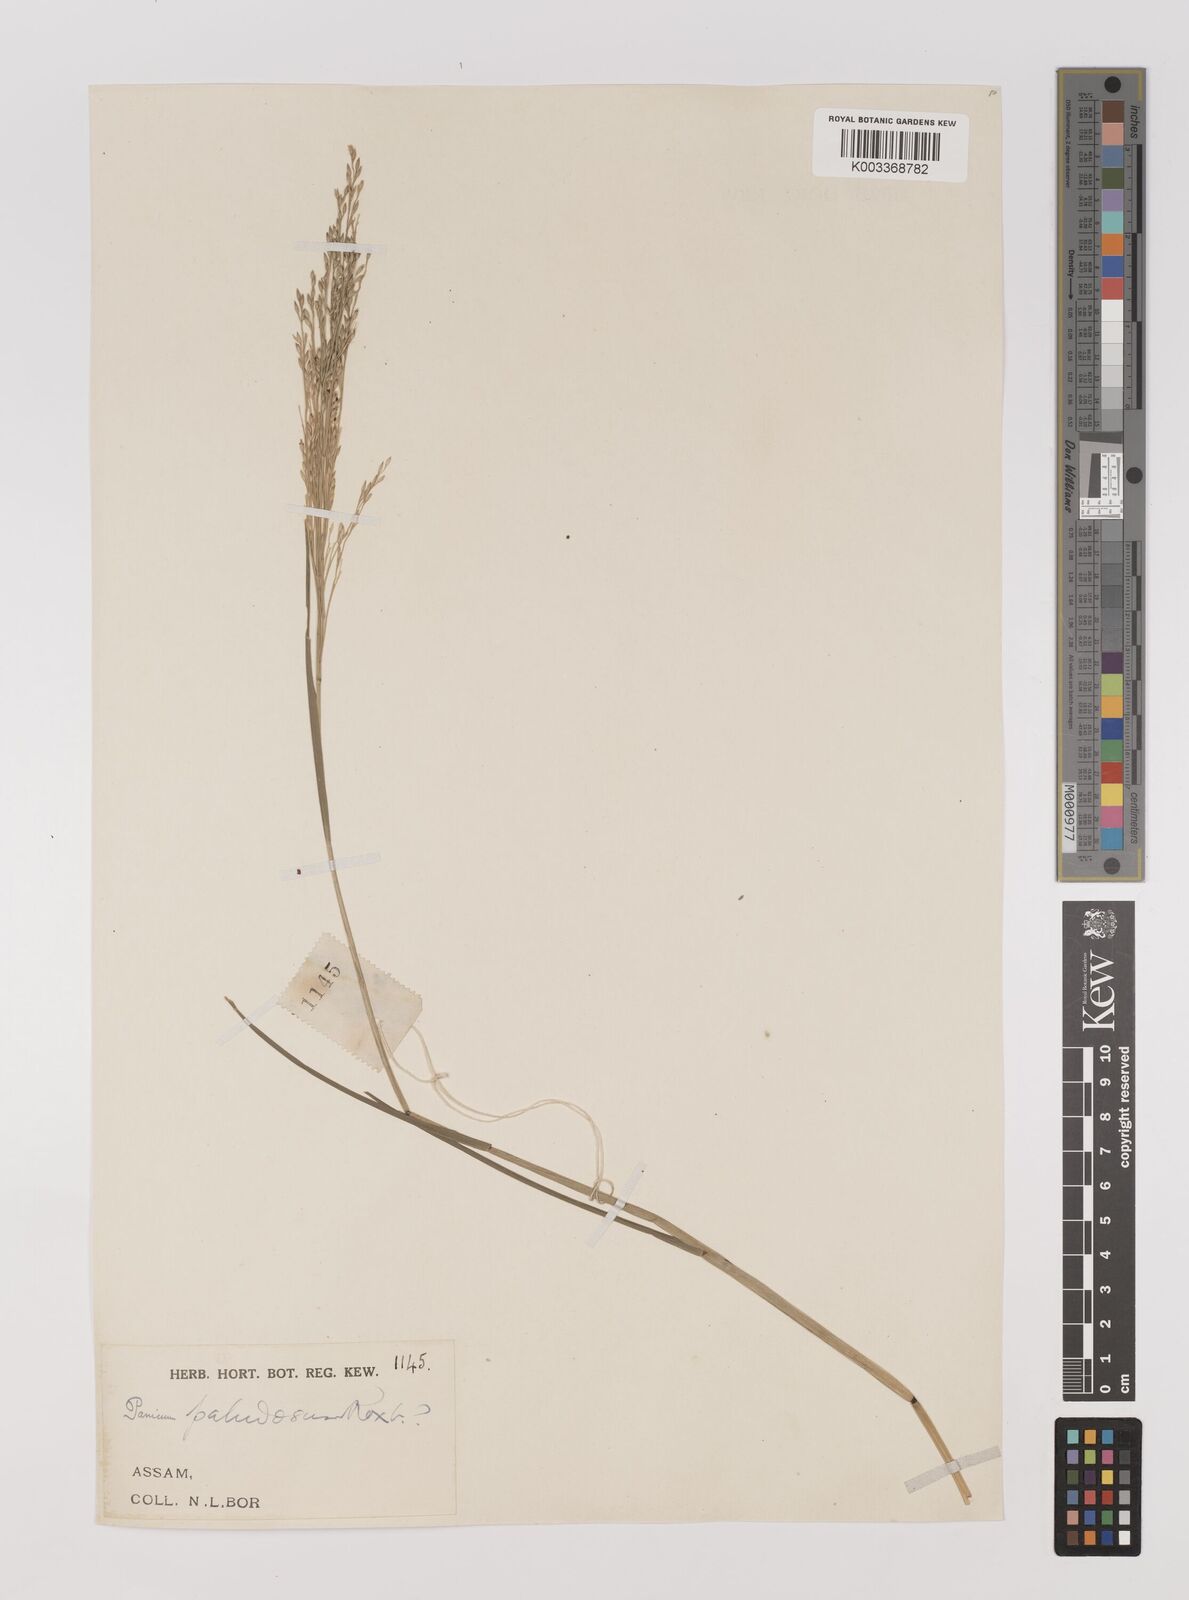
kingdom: Plantae
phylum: Tracheophyta
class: Liliopsida
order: Poales
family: Poaceae
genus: Louisiella
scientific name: Louisiella paludosa
